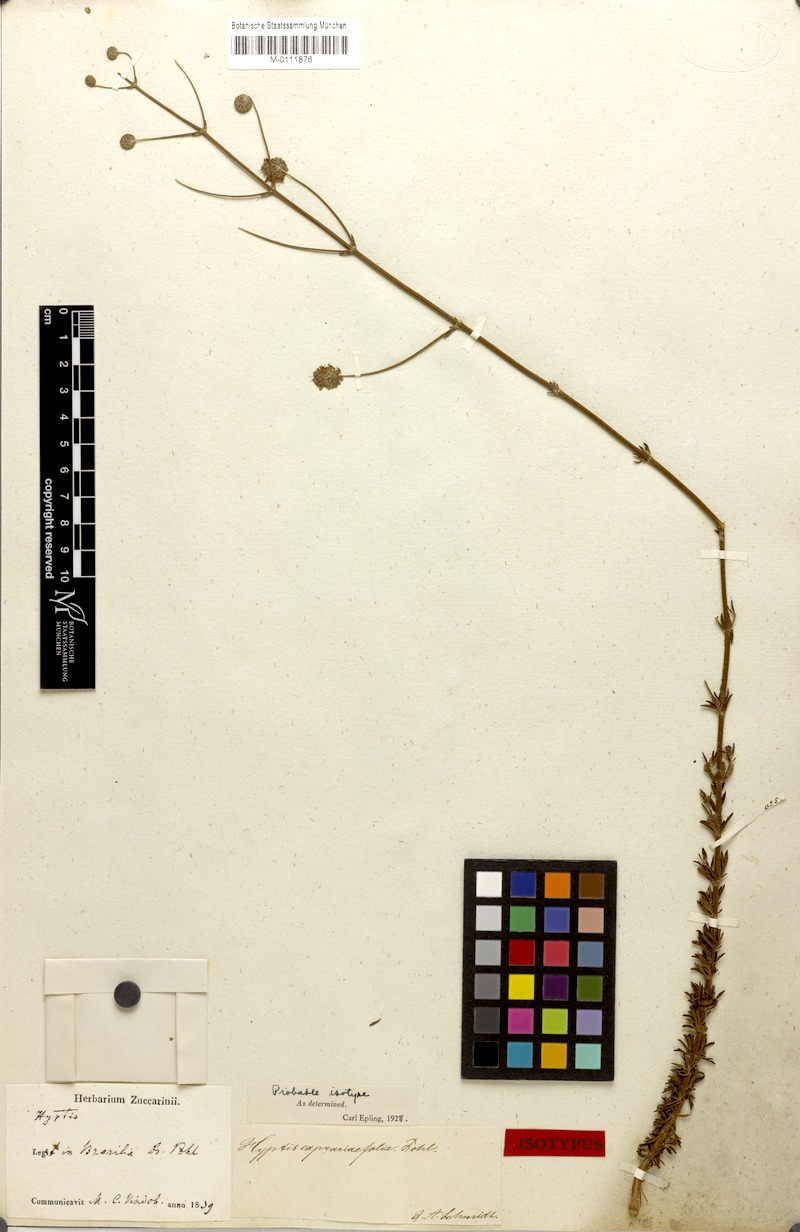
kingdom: Plantae
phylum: Tracheophyta
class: Magnoliopsida
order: Lamiales
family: Lamiaceae
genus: Cyanocephalus
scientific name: Cyanocephalus caprariifolius
